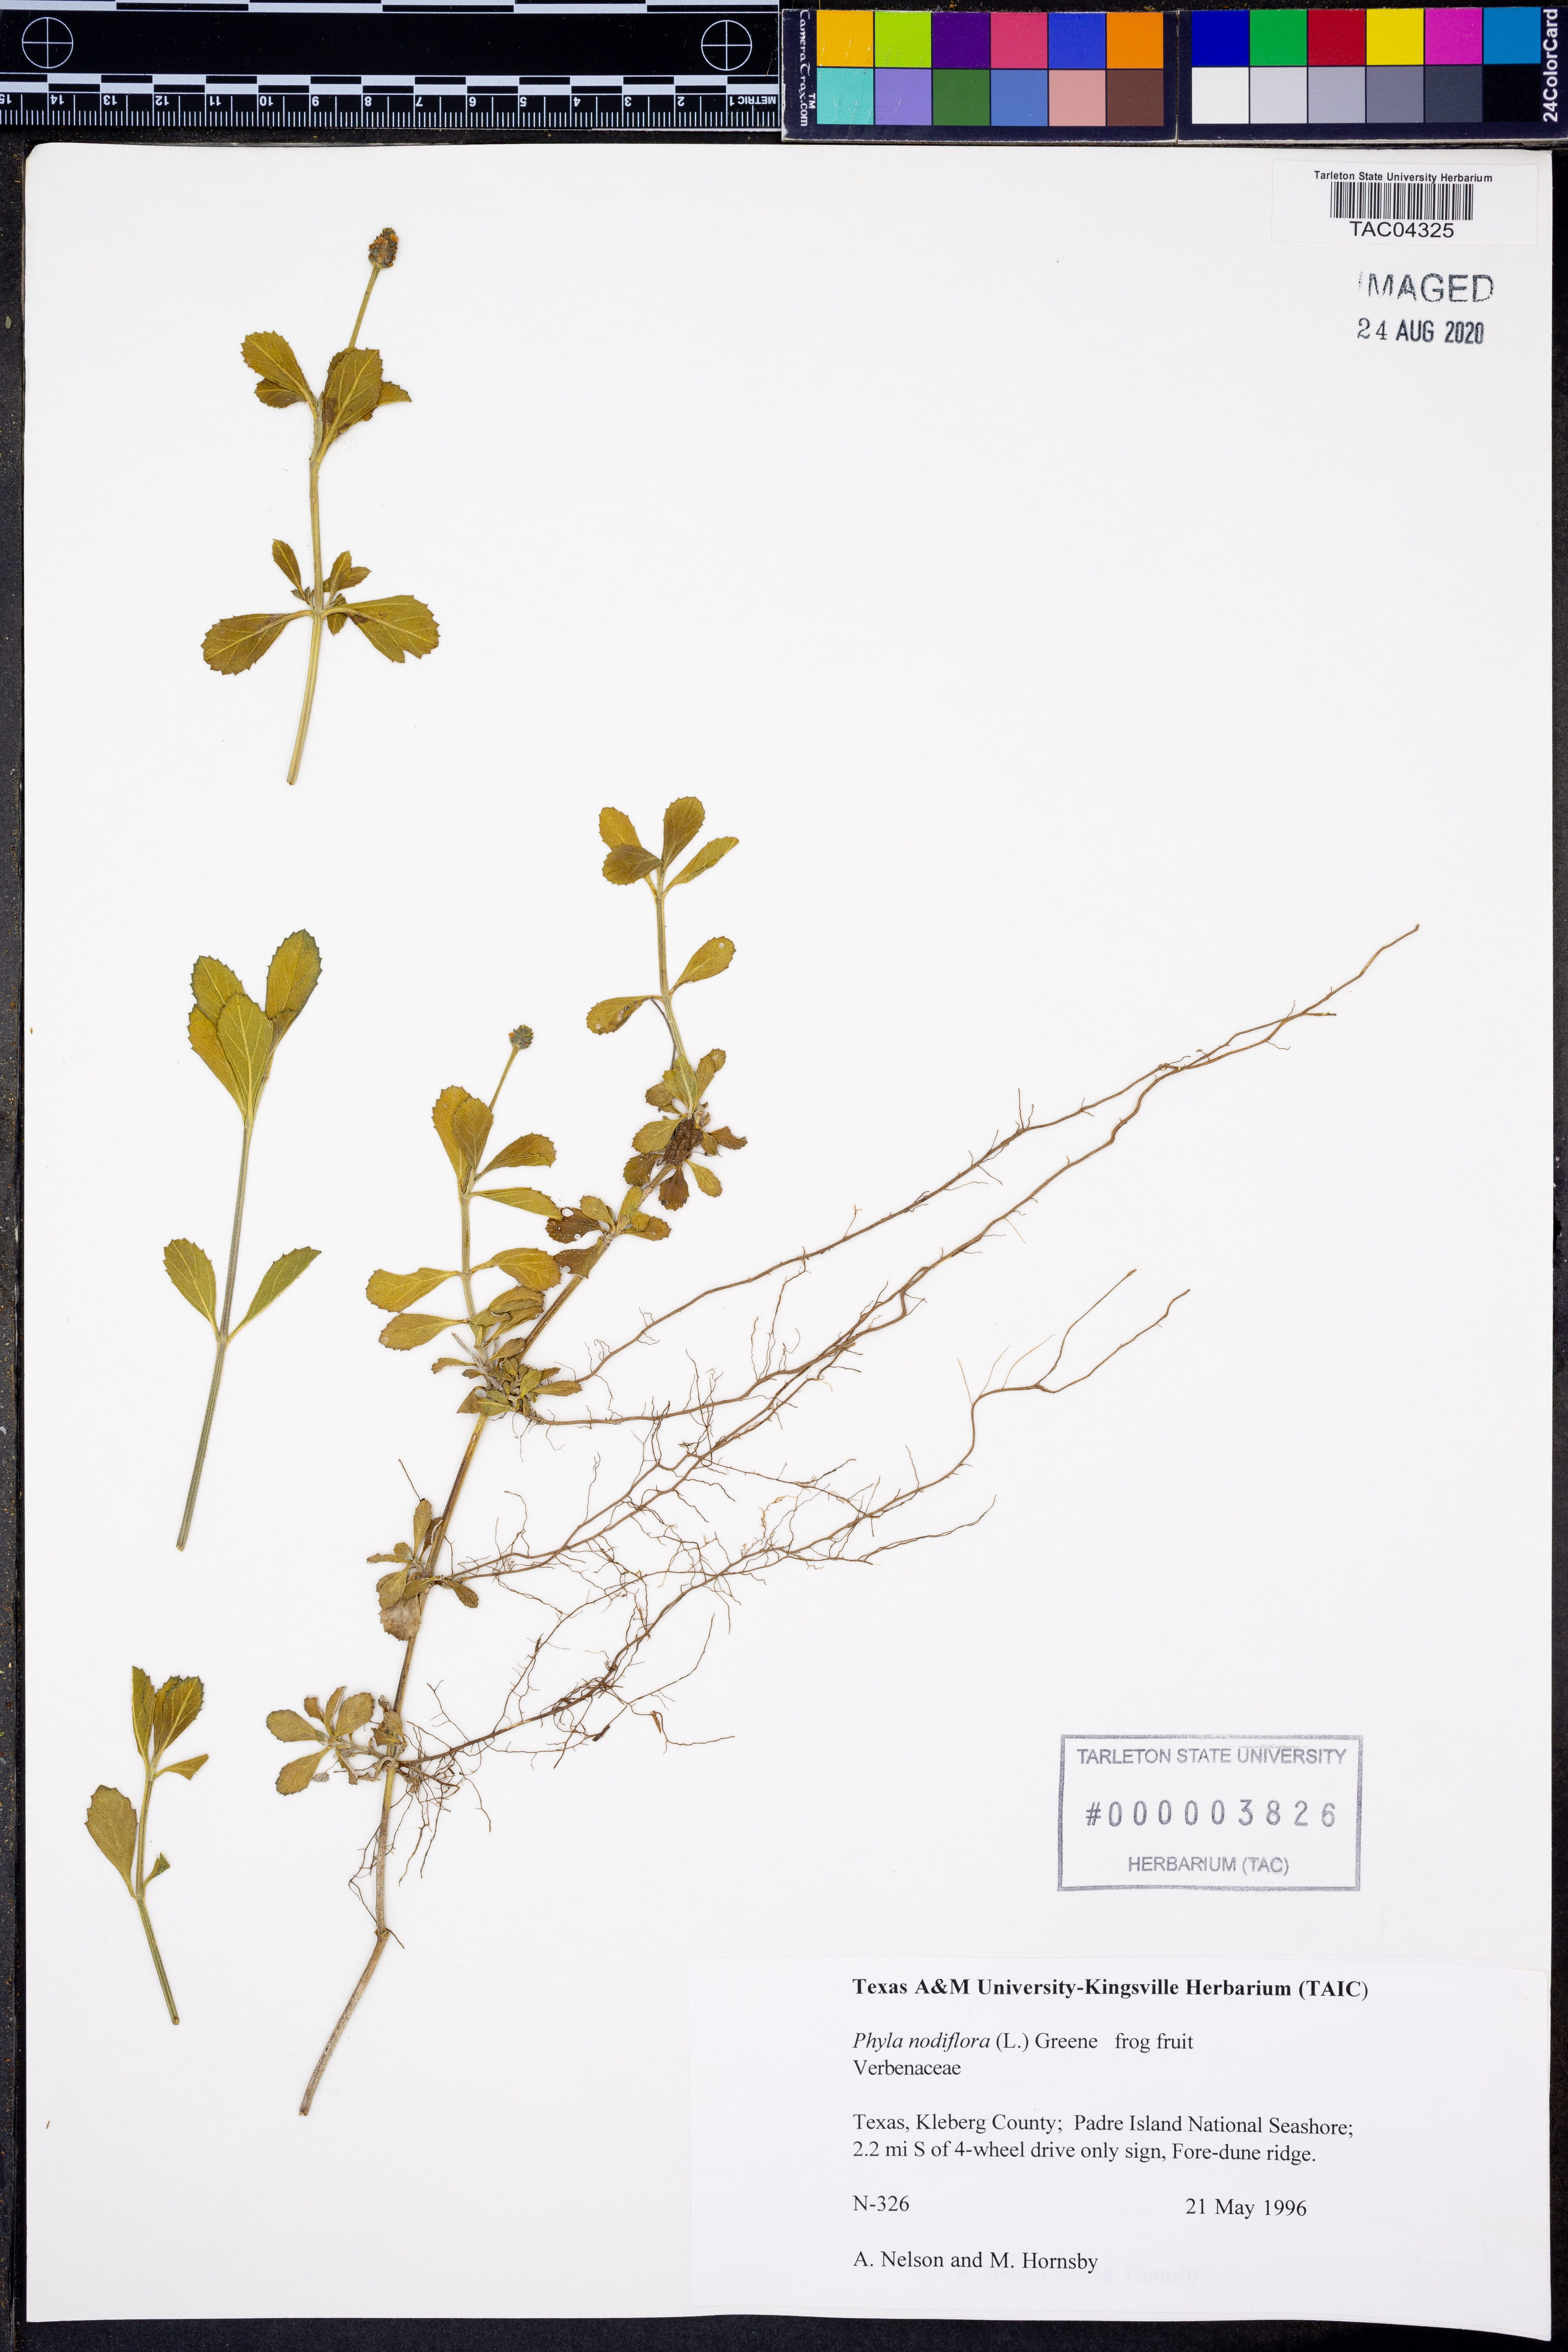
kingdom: Plantae
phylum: Tracheophyta
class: Magnoliopsida
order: Lamiales
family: Verbenaceae
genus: Phyla
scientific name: Phyla nodiflora
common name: Frogfruit
